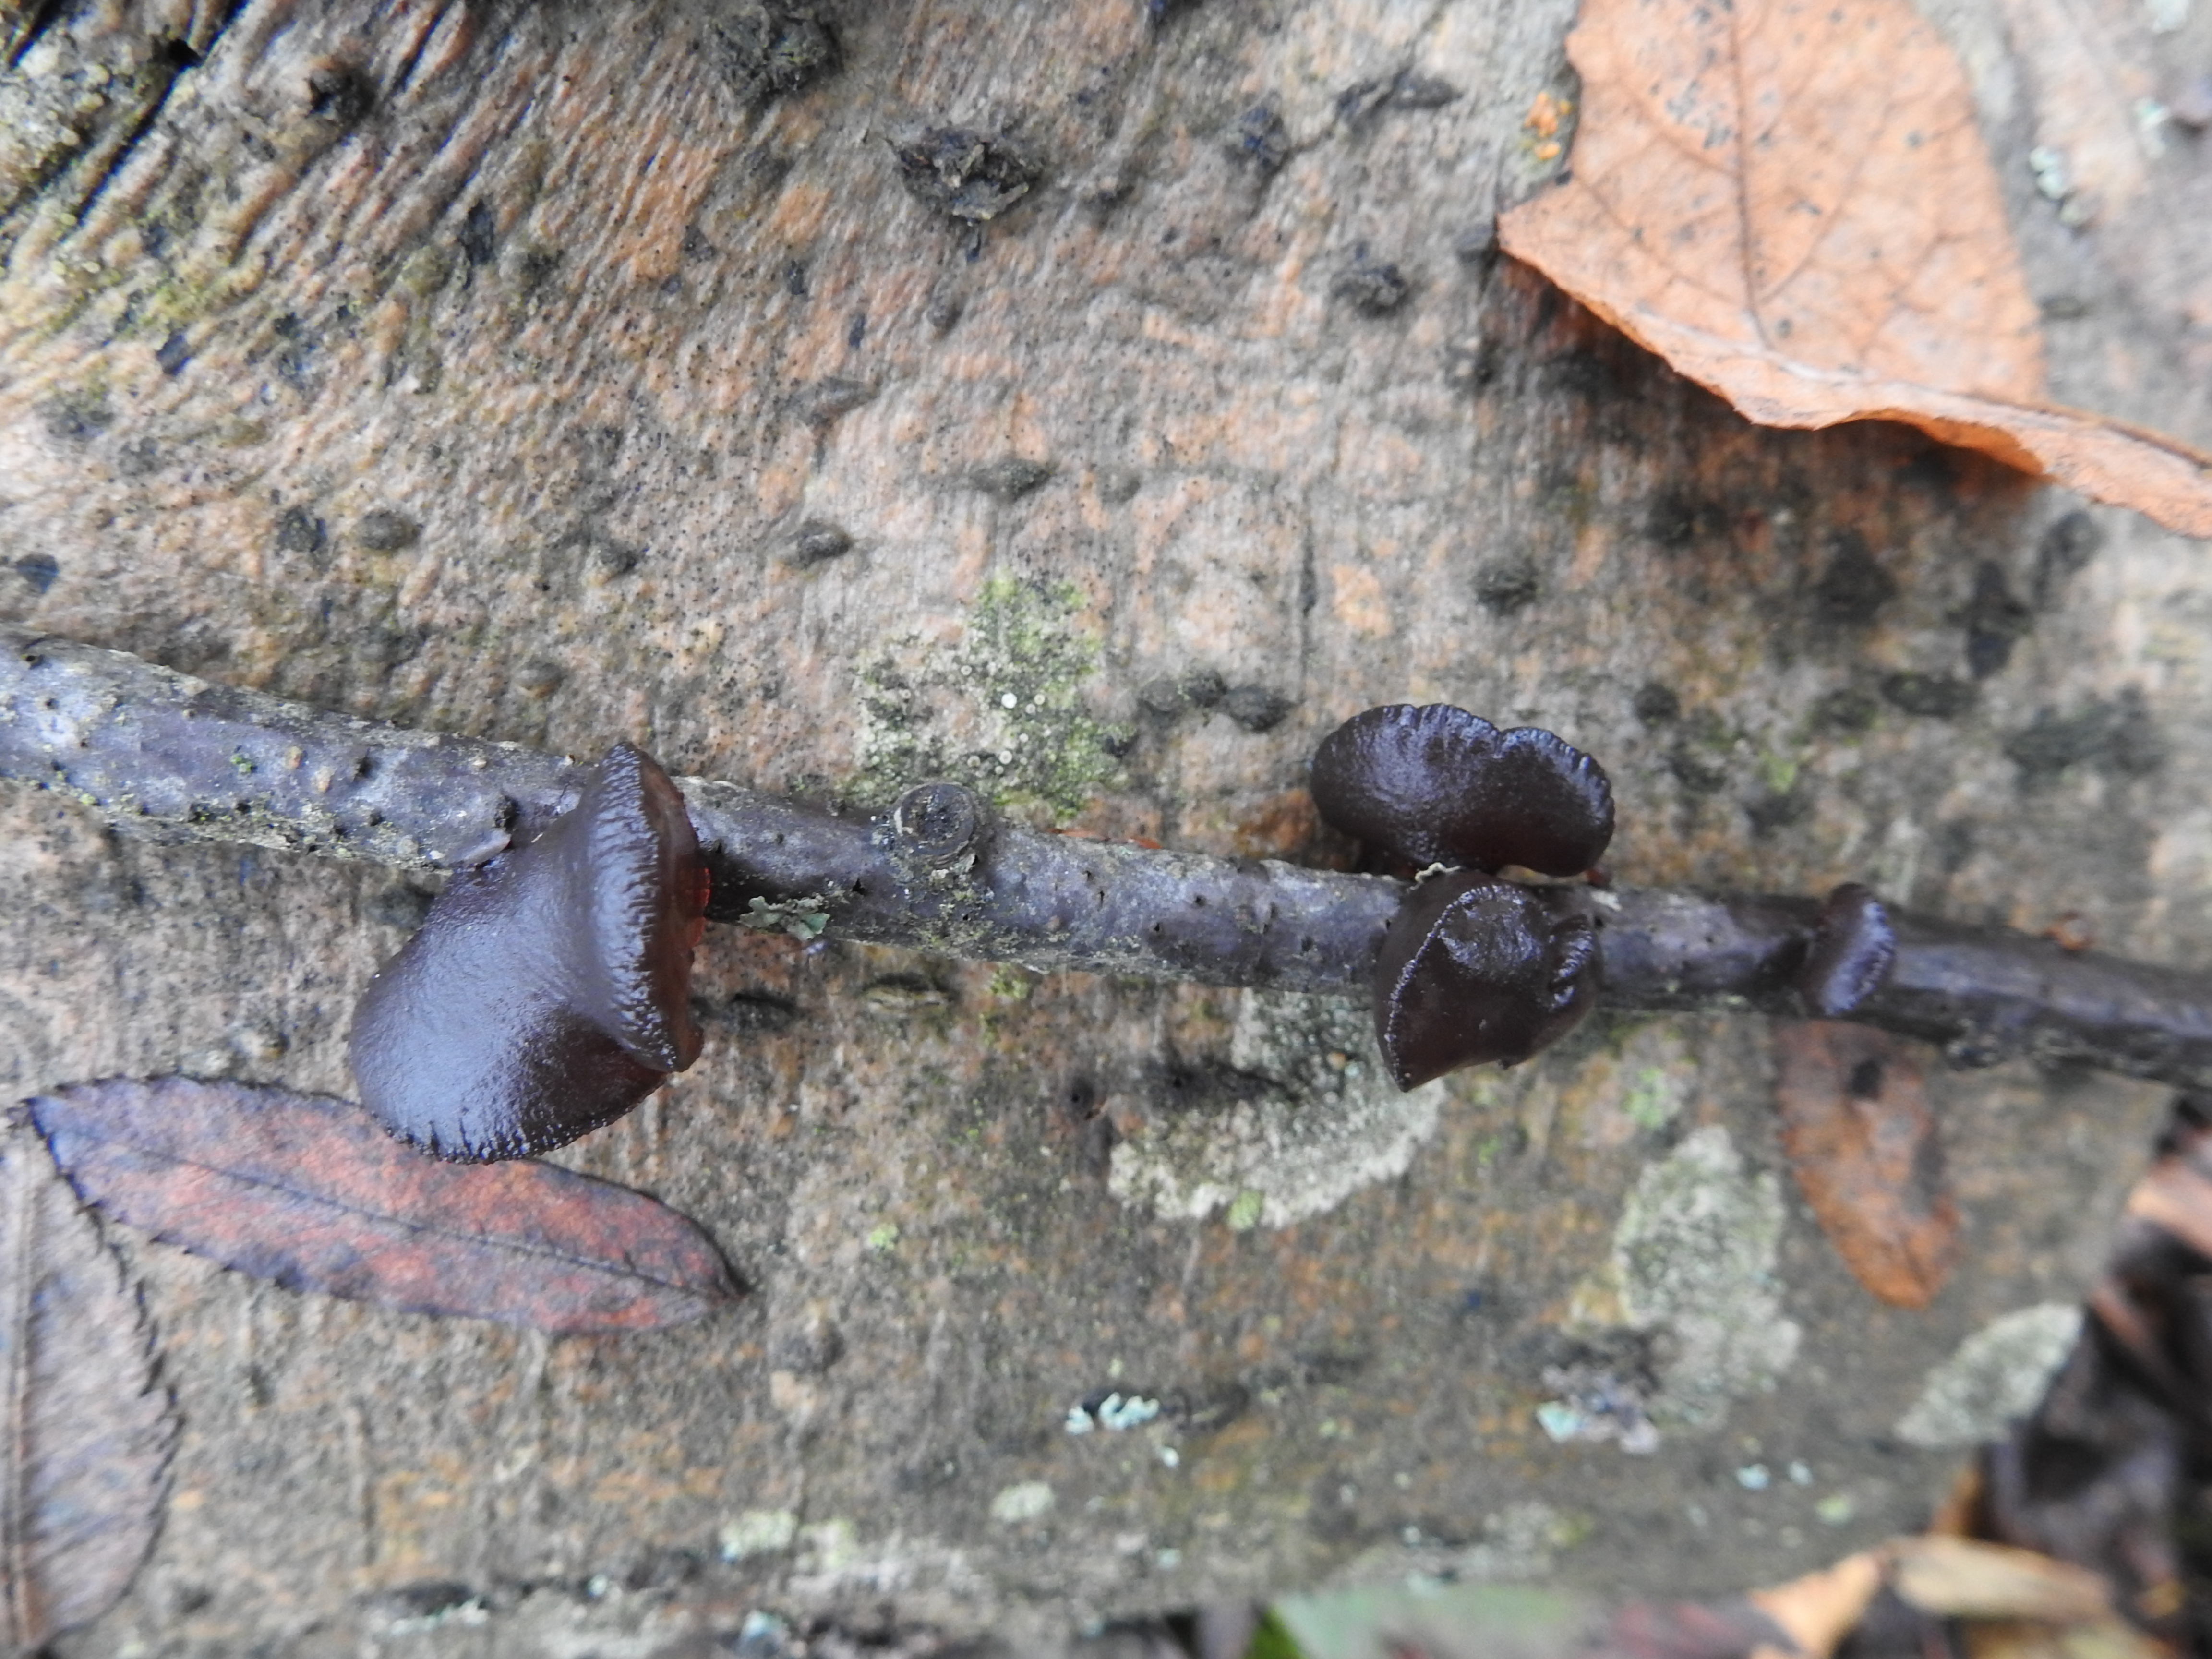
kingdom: Fungi
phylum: Basidiomycota
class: Agaricomycetes
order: Auriculariales
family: Auriculariaceae
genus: Exidia
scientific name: Exidia recisa
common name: Amber jelly
